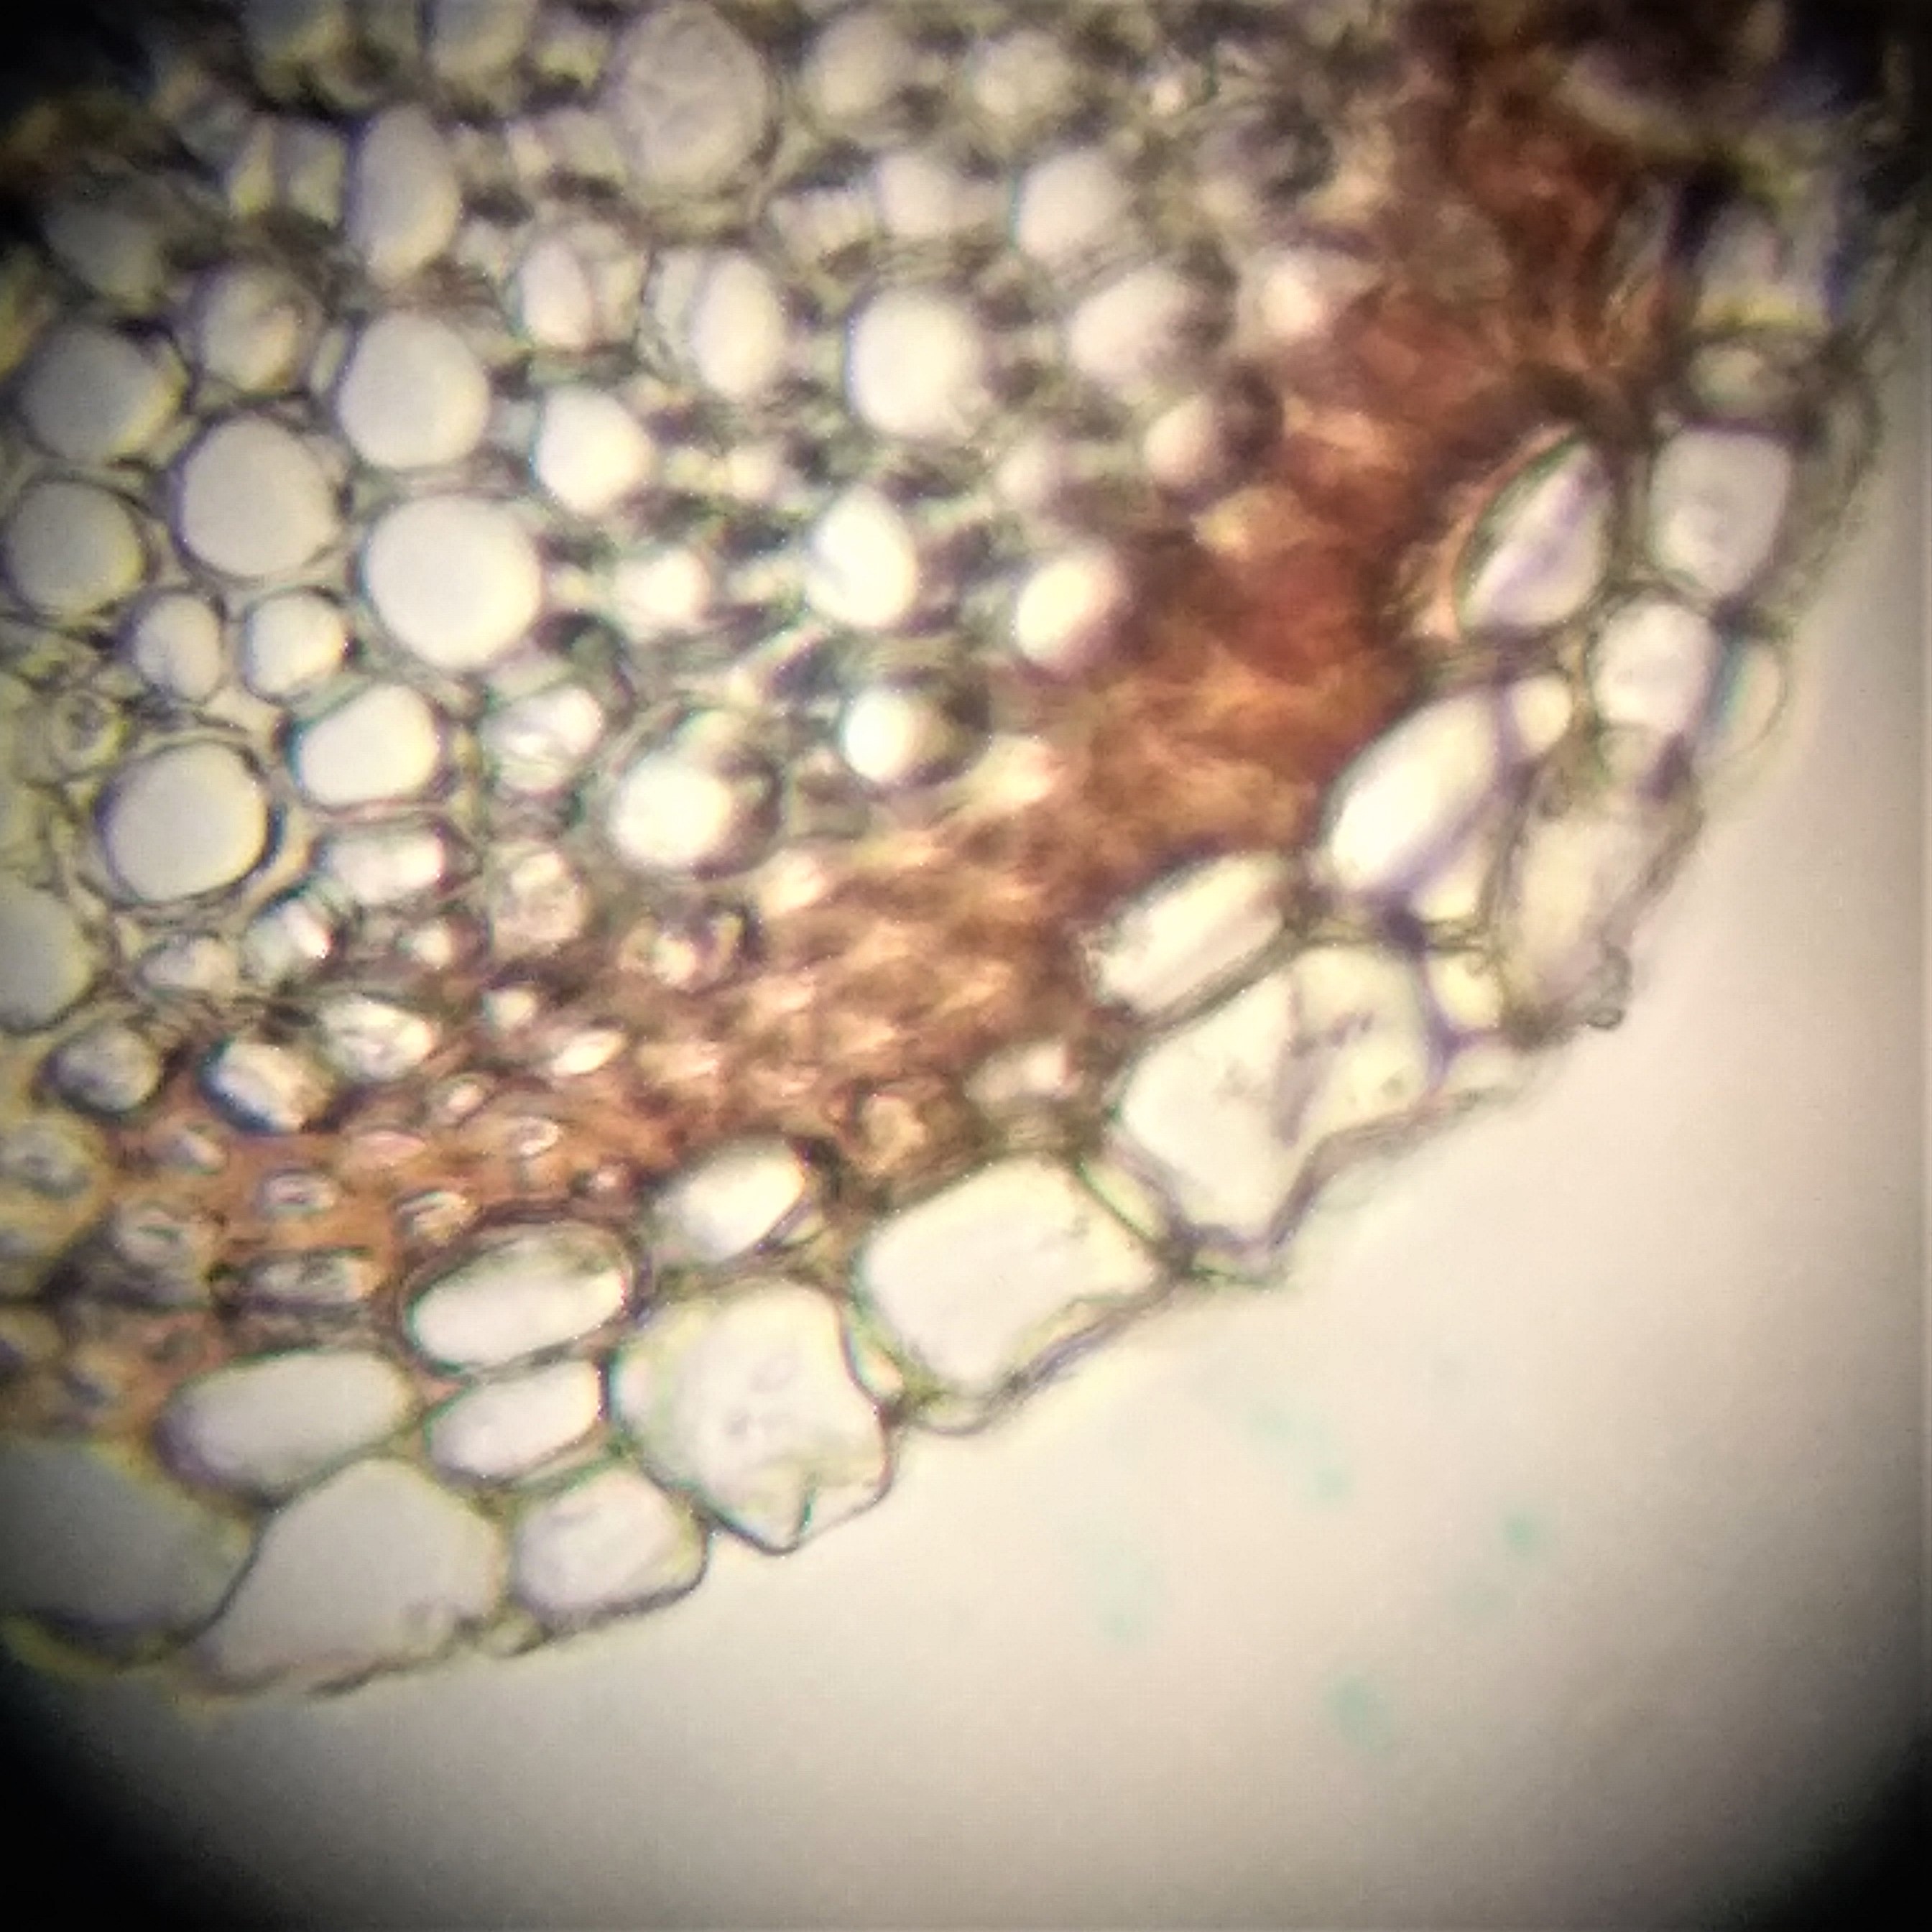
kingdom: Plantae
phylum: Bryophyta
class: Sphagnopsida
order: Sphagnales
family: Sphagnaceae
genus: Sphagnum
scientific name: Sphagnum contortum
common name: Krumbladet tørvemos
